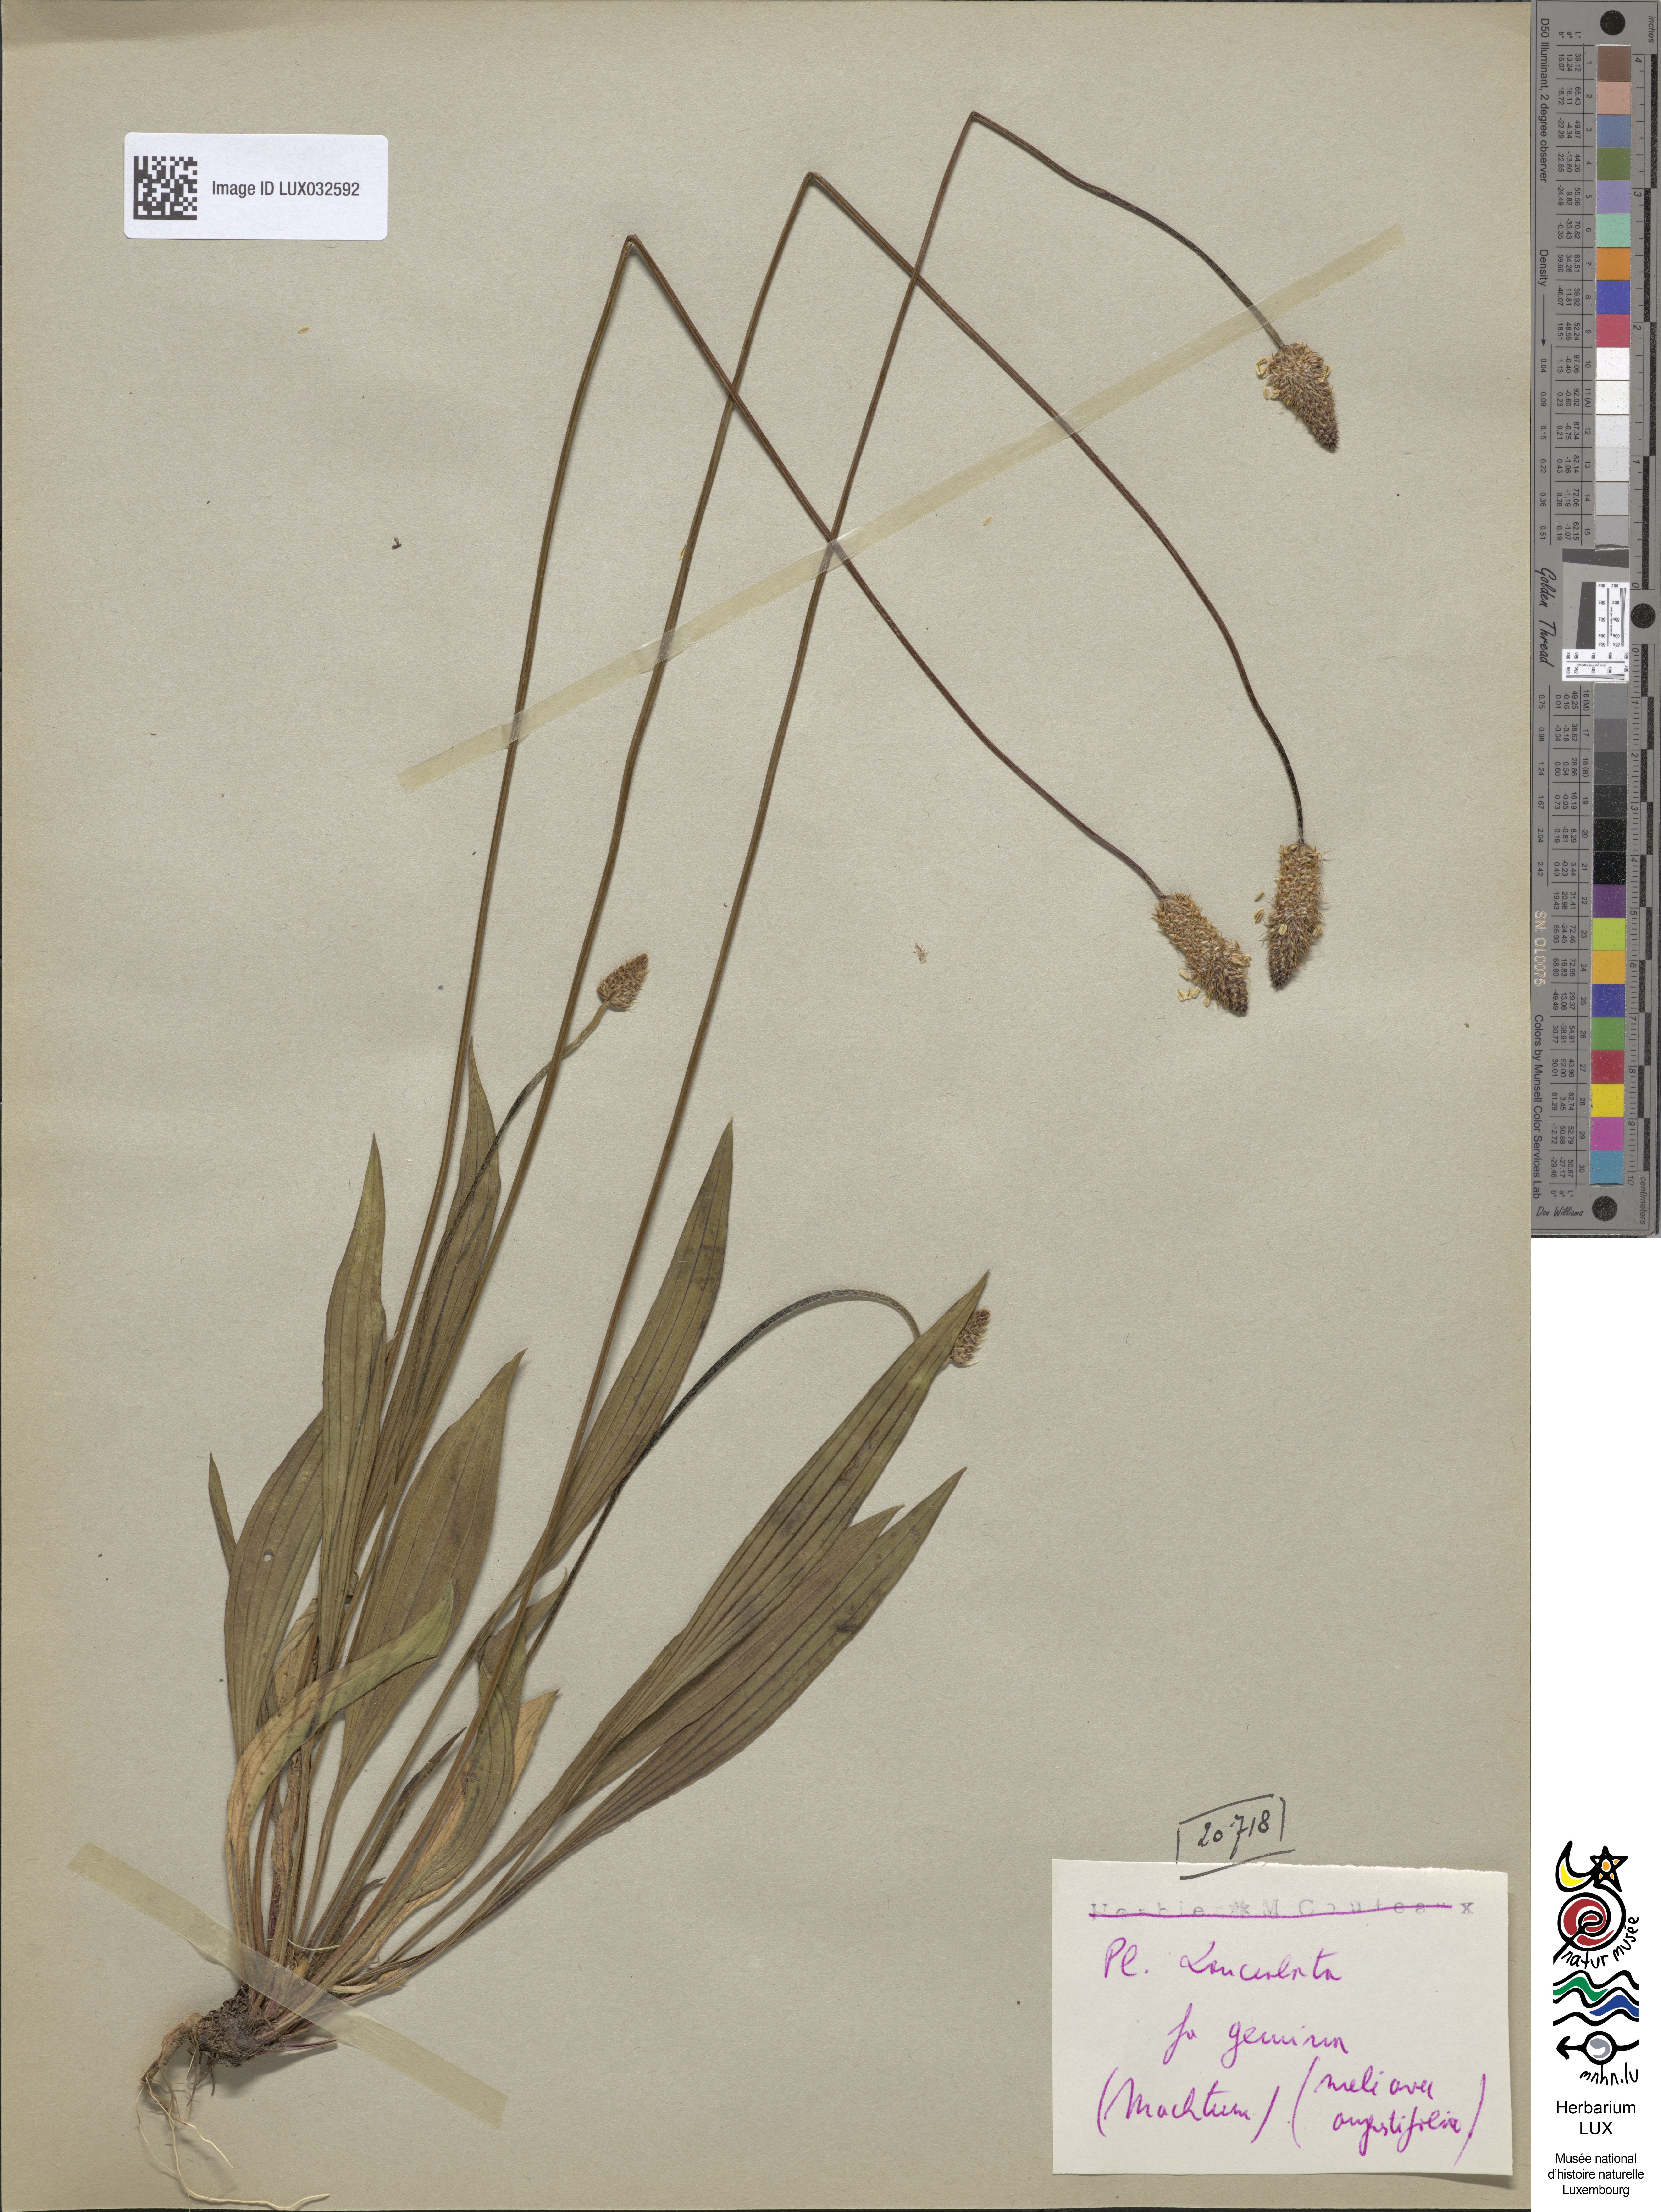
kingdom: Plantae
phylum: Tracheophyta
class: Magnoliopsida
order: Lamiales
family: Plantaginaceae
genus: Plantago
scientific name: Plantago lanceolata
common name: Ribwort plantain
